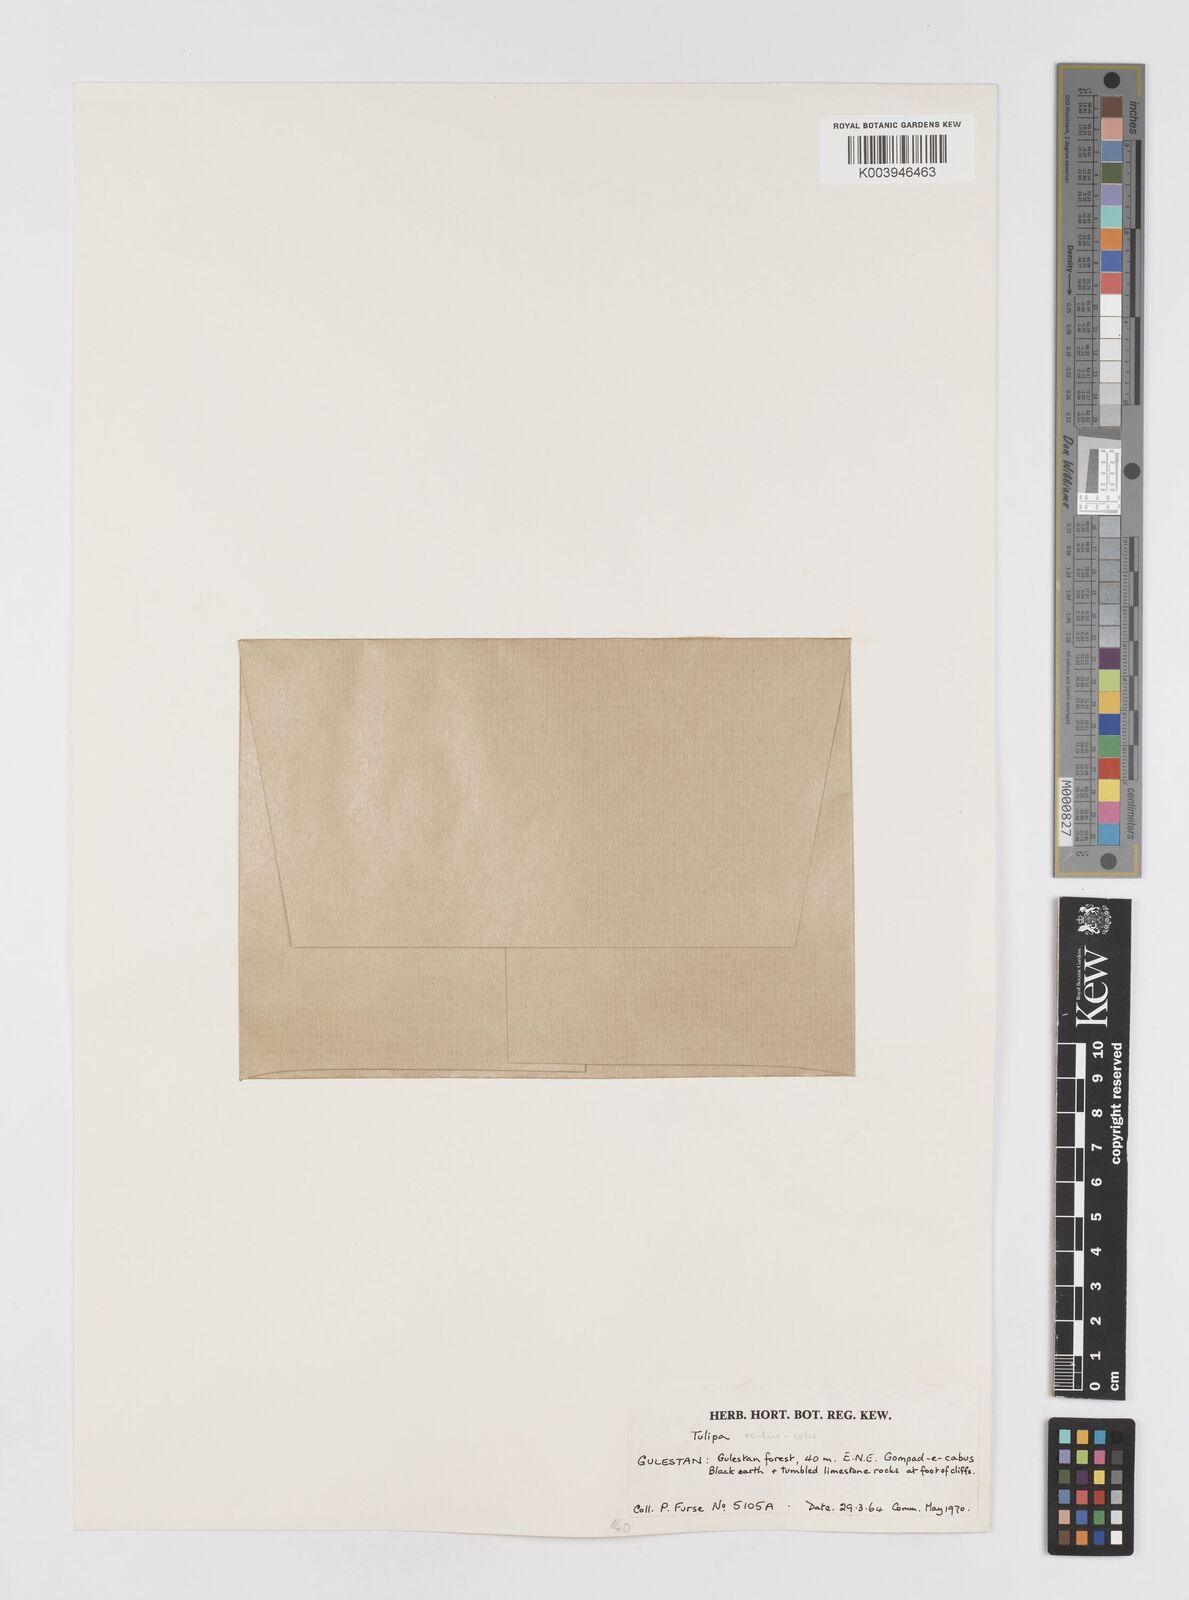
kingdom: Plantae
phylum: Tracheophyta
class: Liliopsida
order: Liliales
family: Liliaceae
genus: Tulipa
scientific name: Tulipa ingens
